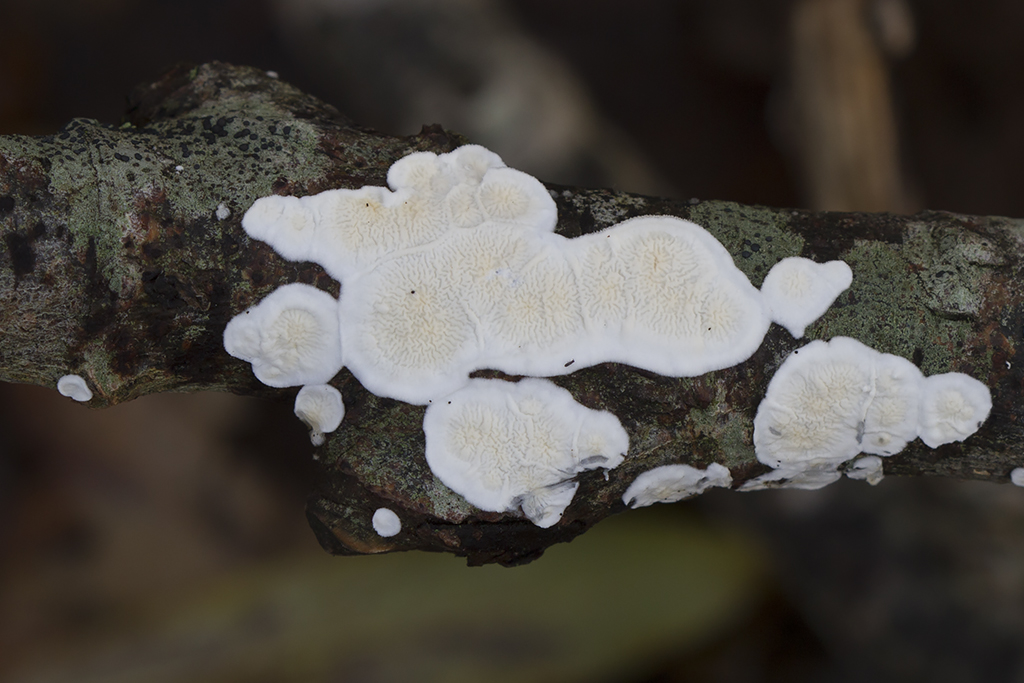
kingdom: Fungi
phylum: Basidiomycota
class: Agaricomycetes
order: Polyporales
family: Irpicaceae
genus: Byssomerulius
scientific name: Byssomerulius corium
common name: læder-åresvamp
